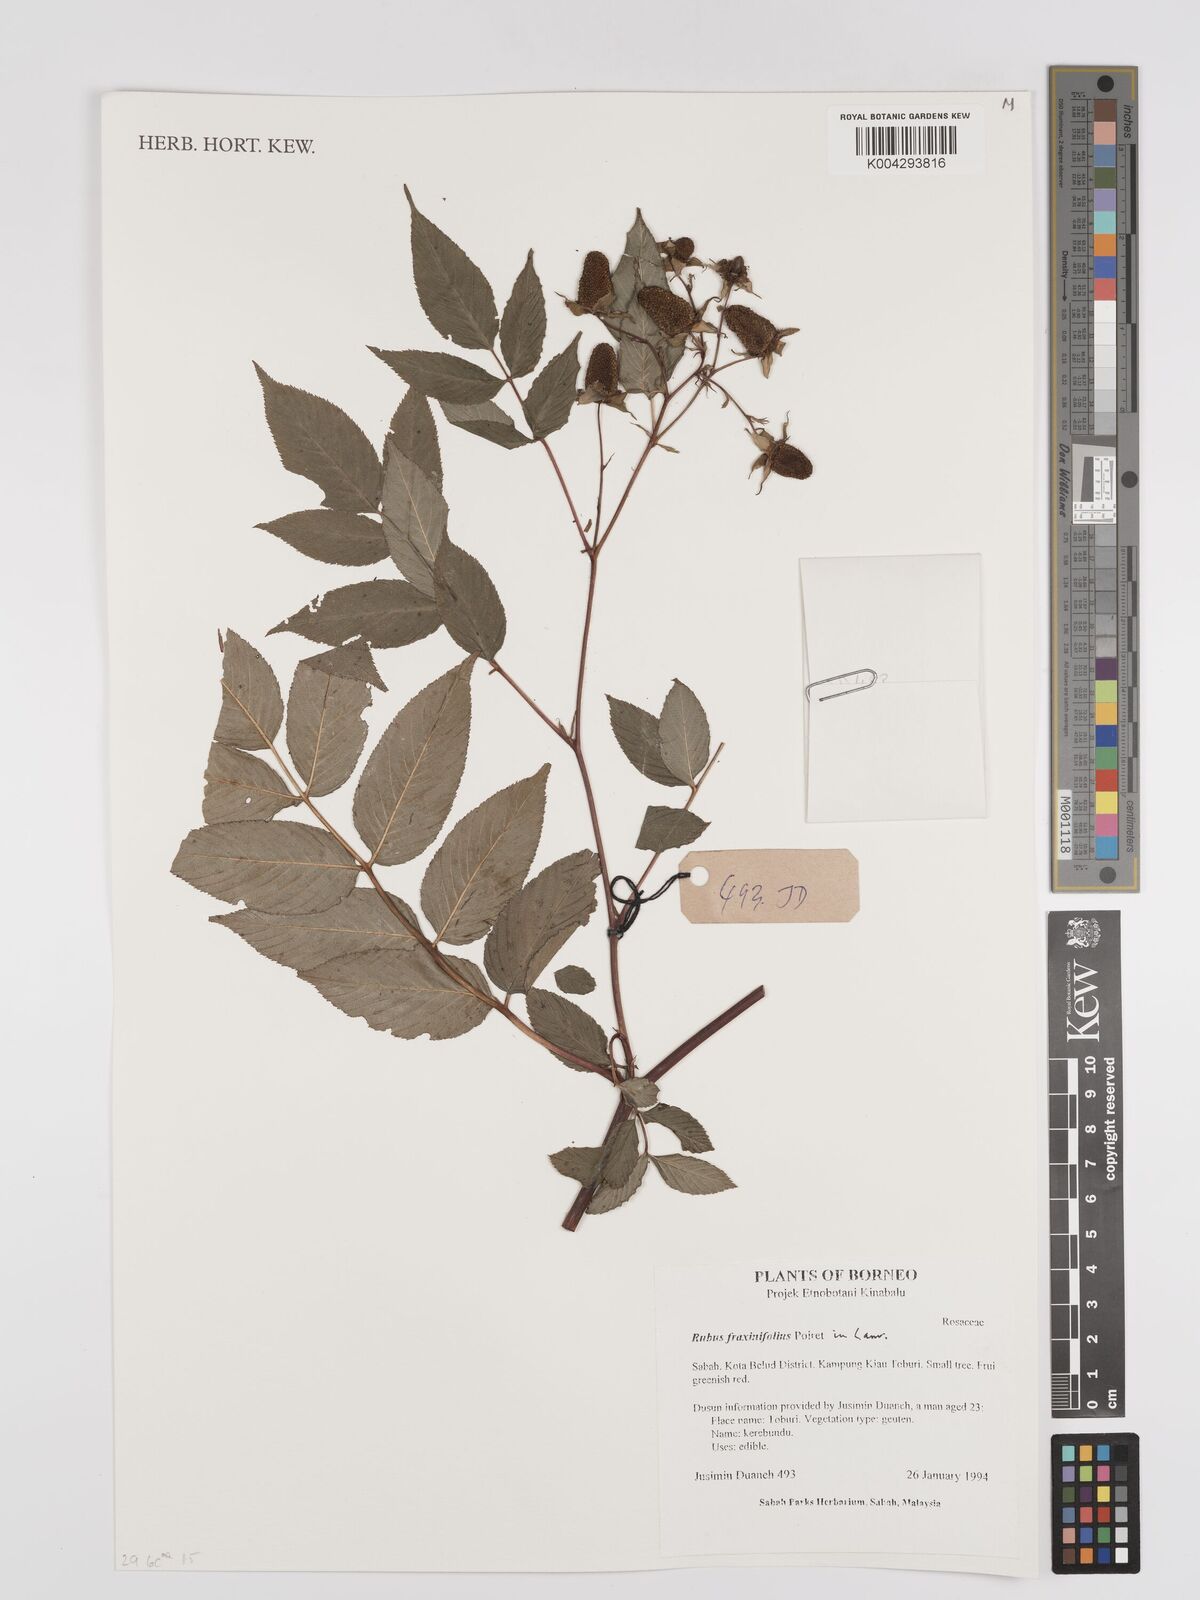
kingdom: Plantae
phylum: Tracheophyta
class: Magnoliopsida
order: Rosales
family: Rosaceae
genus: Rubus
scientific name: Rubus fraxinifolius
